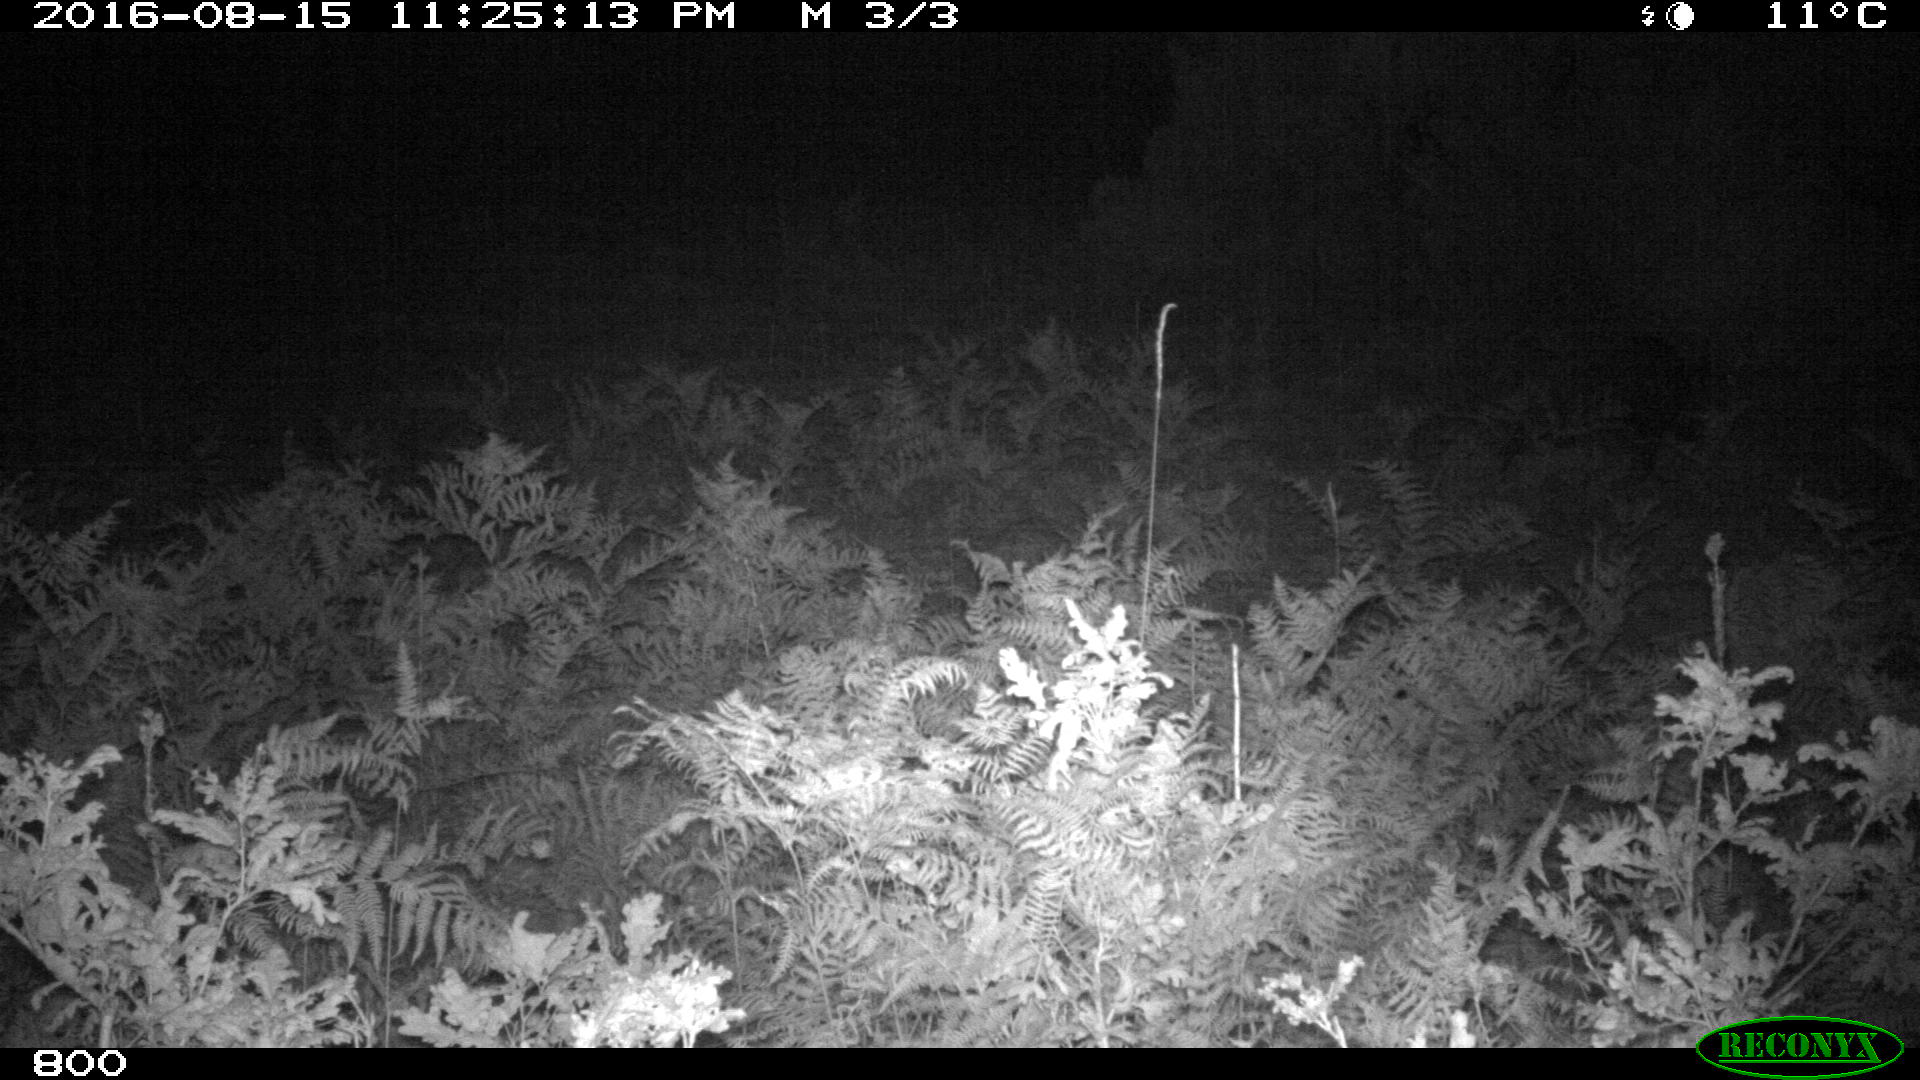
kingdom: Animalia
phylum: Chordata
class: Mammalia
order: Artiodactyla
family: Suidae
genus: Sus
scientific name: Sus scrofa
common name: Wild boar
